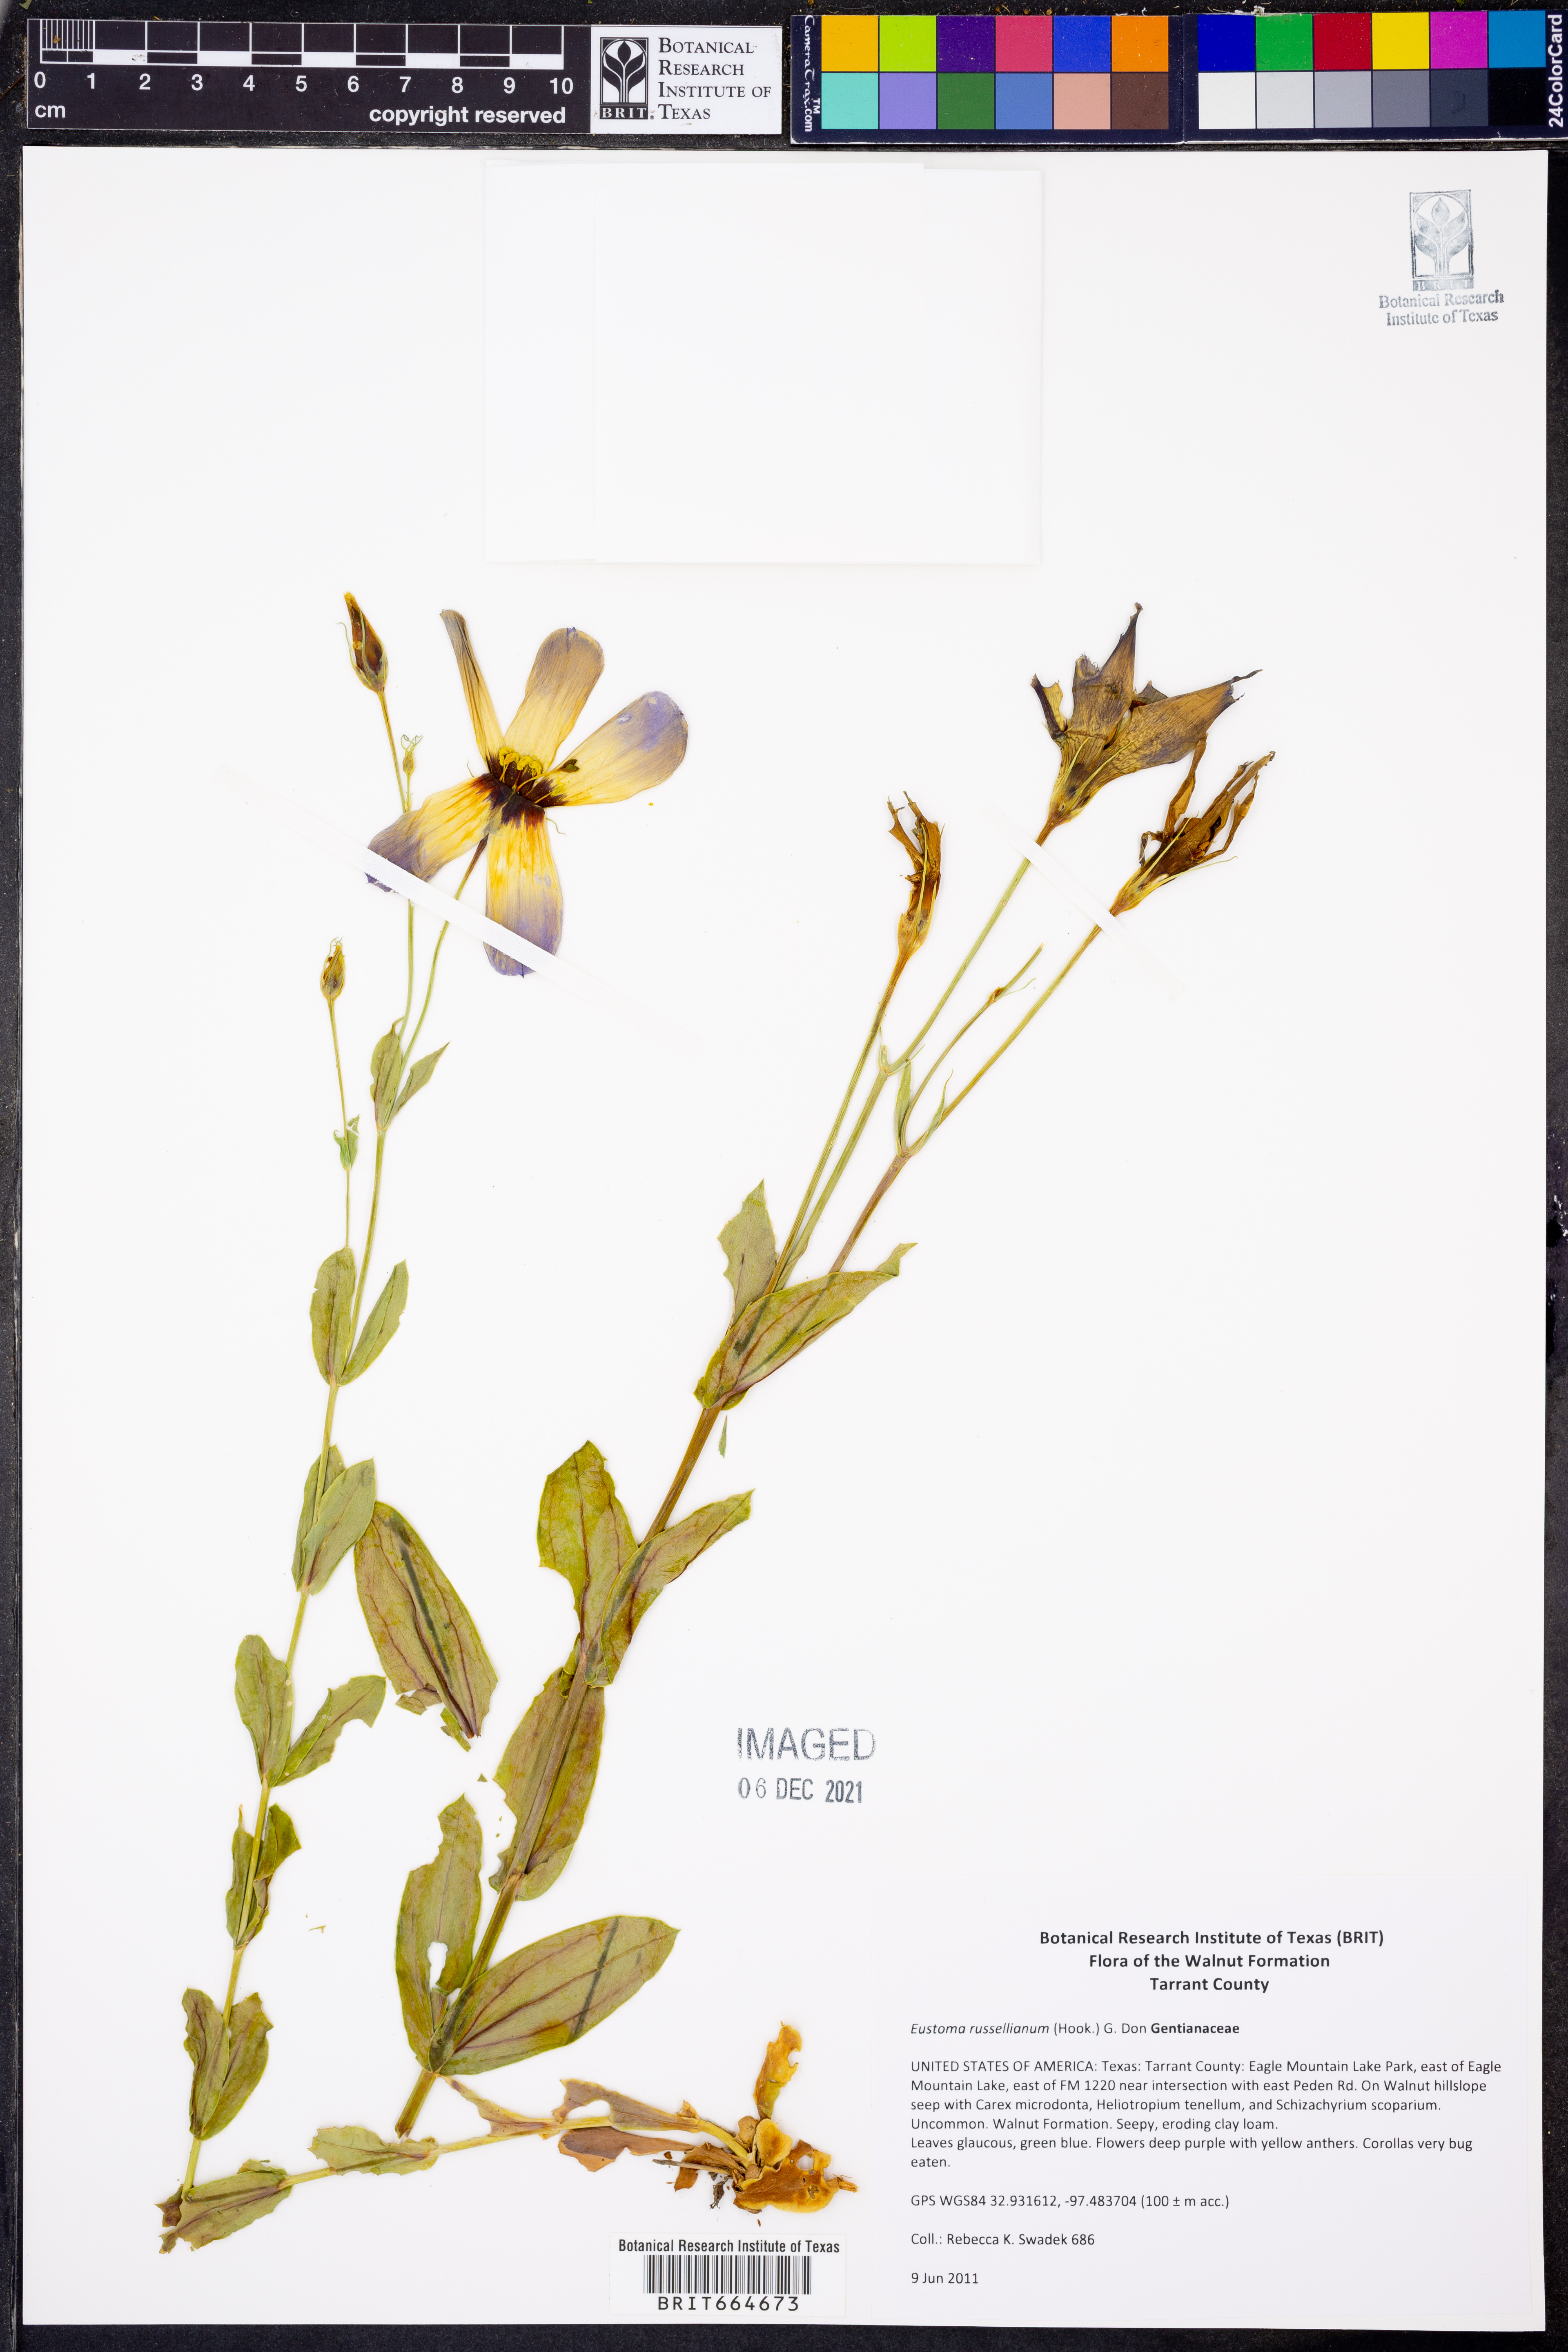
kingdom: Plantae
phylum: Tracheophyta
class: Magnoliopsida
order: Gentianales
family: Gentianaceae
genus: Eustoma
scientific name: Eustoma russellianum
